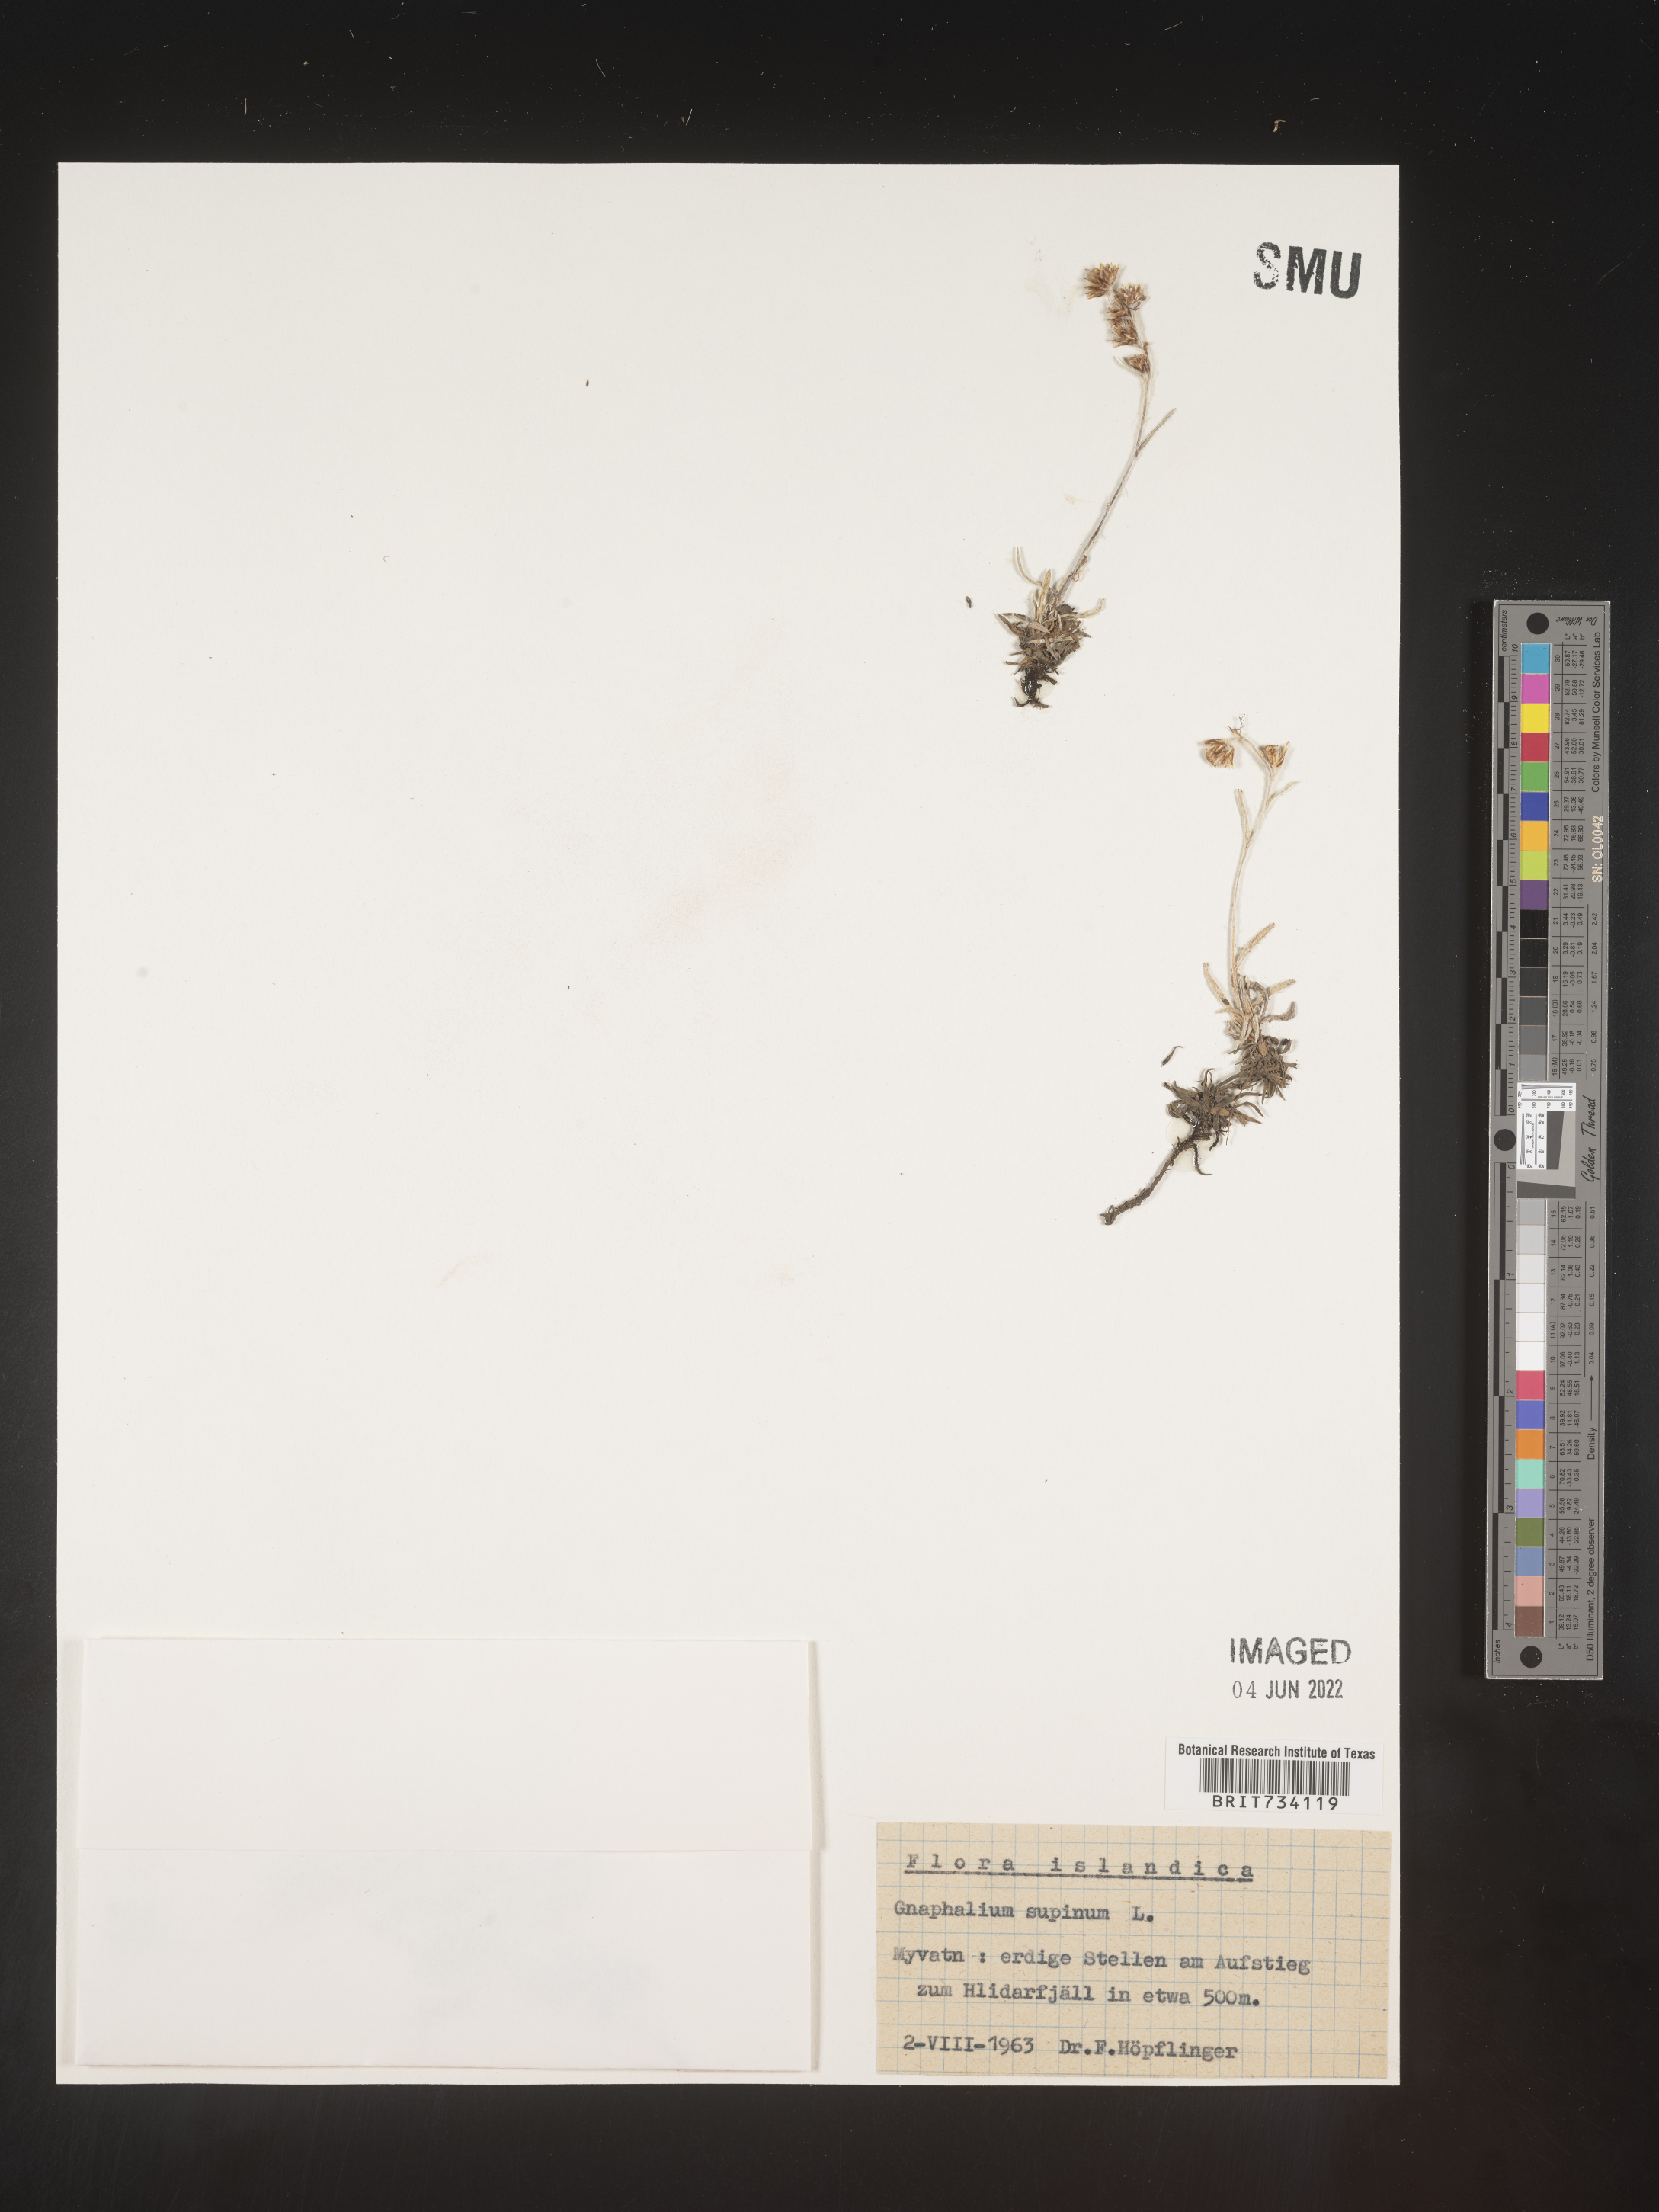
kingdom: Plantae
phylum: Tracheophyta
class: Magnoliopsida
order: Asterales
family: Asteraceae
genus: Omalotheca
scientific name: Omalotheca supina
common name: Alpine arctic-cudweed
